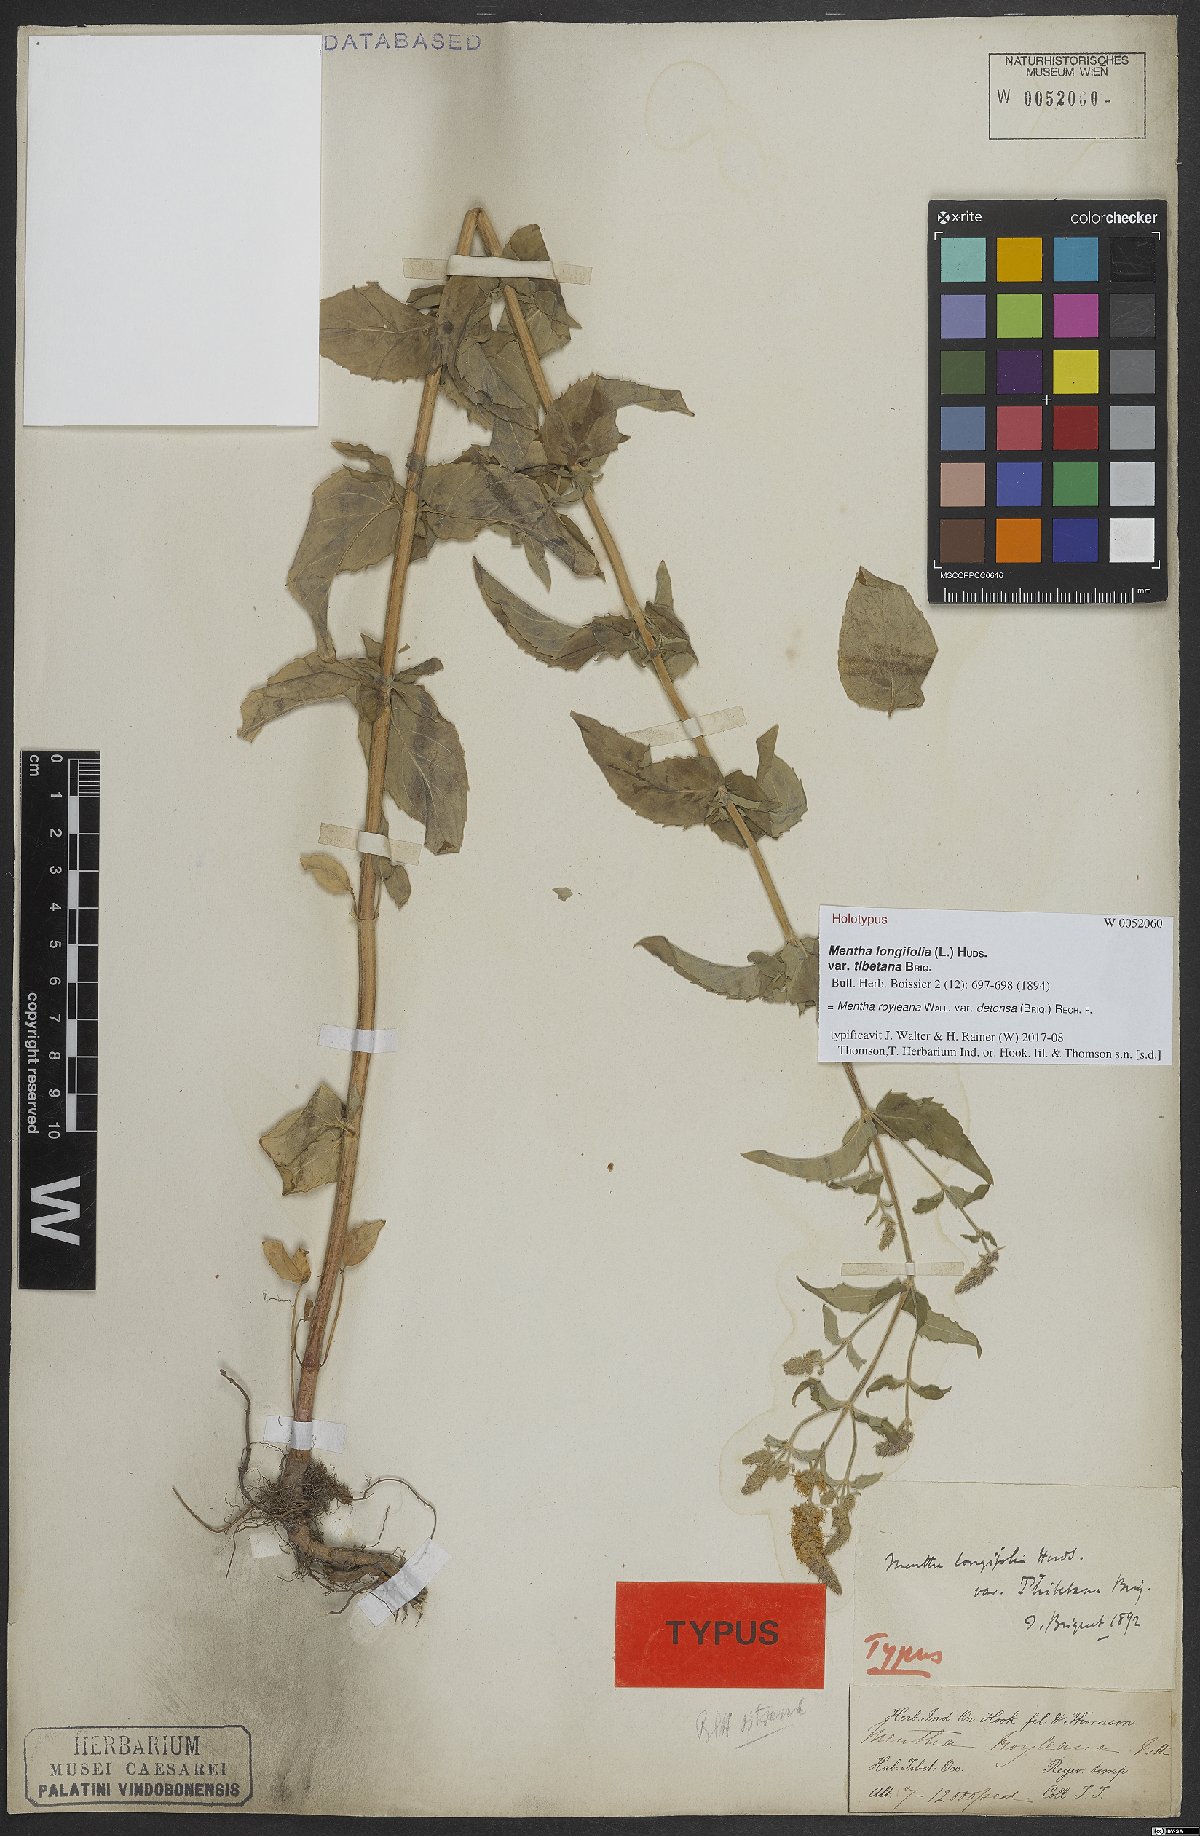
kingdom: Plantae
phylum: Tracheophyta
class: Magnoliopsida
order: Lamiales
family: Lamiaceae
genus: Mentha
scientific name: Mentha royleana
